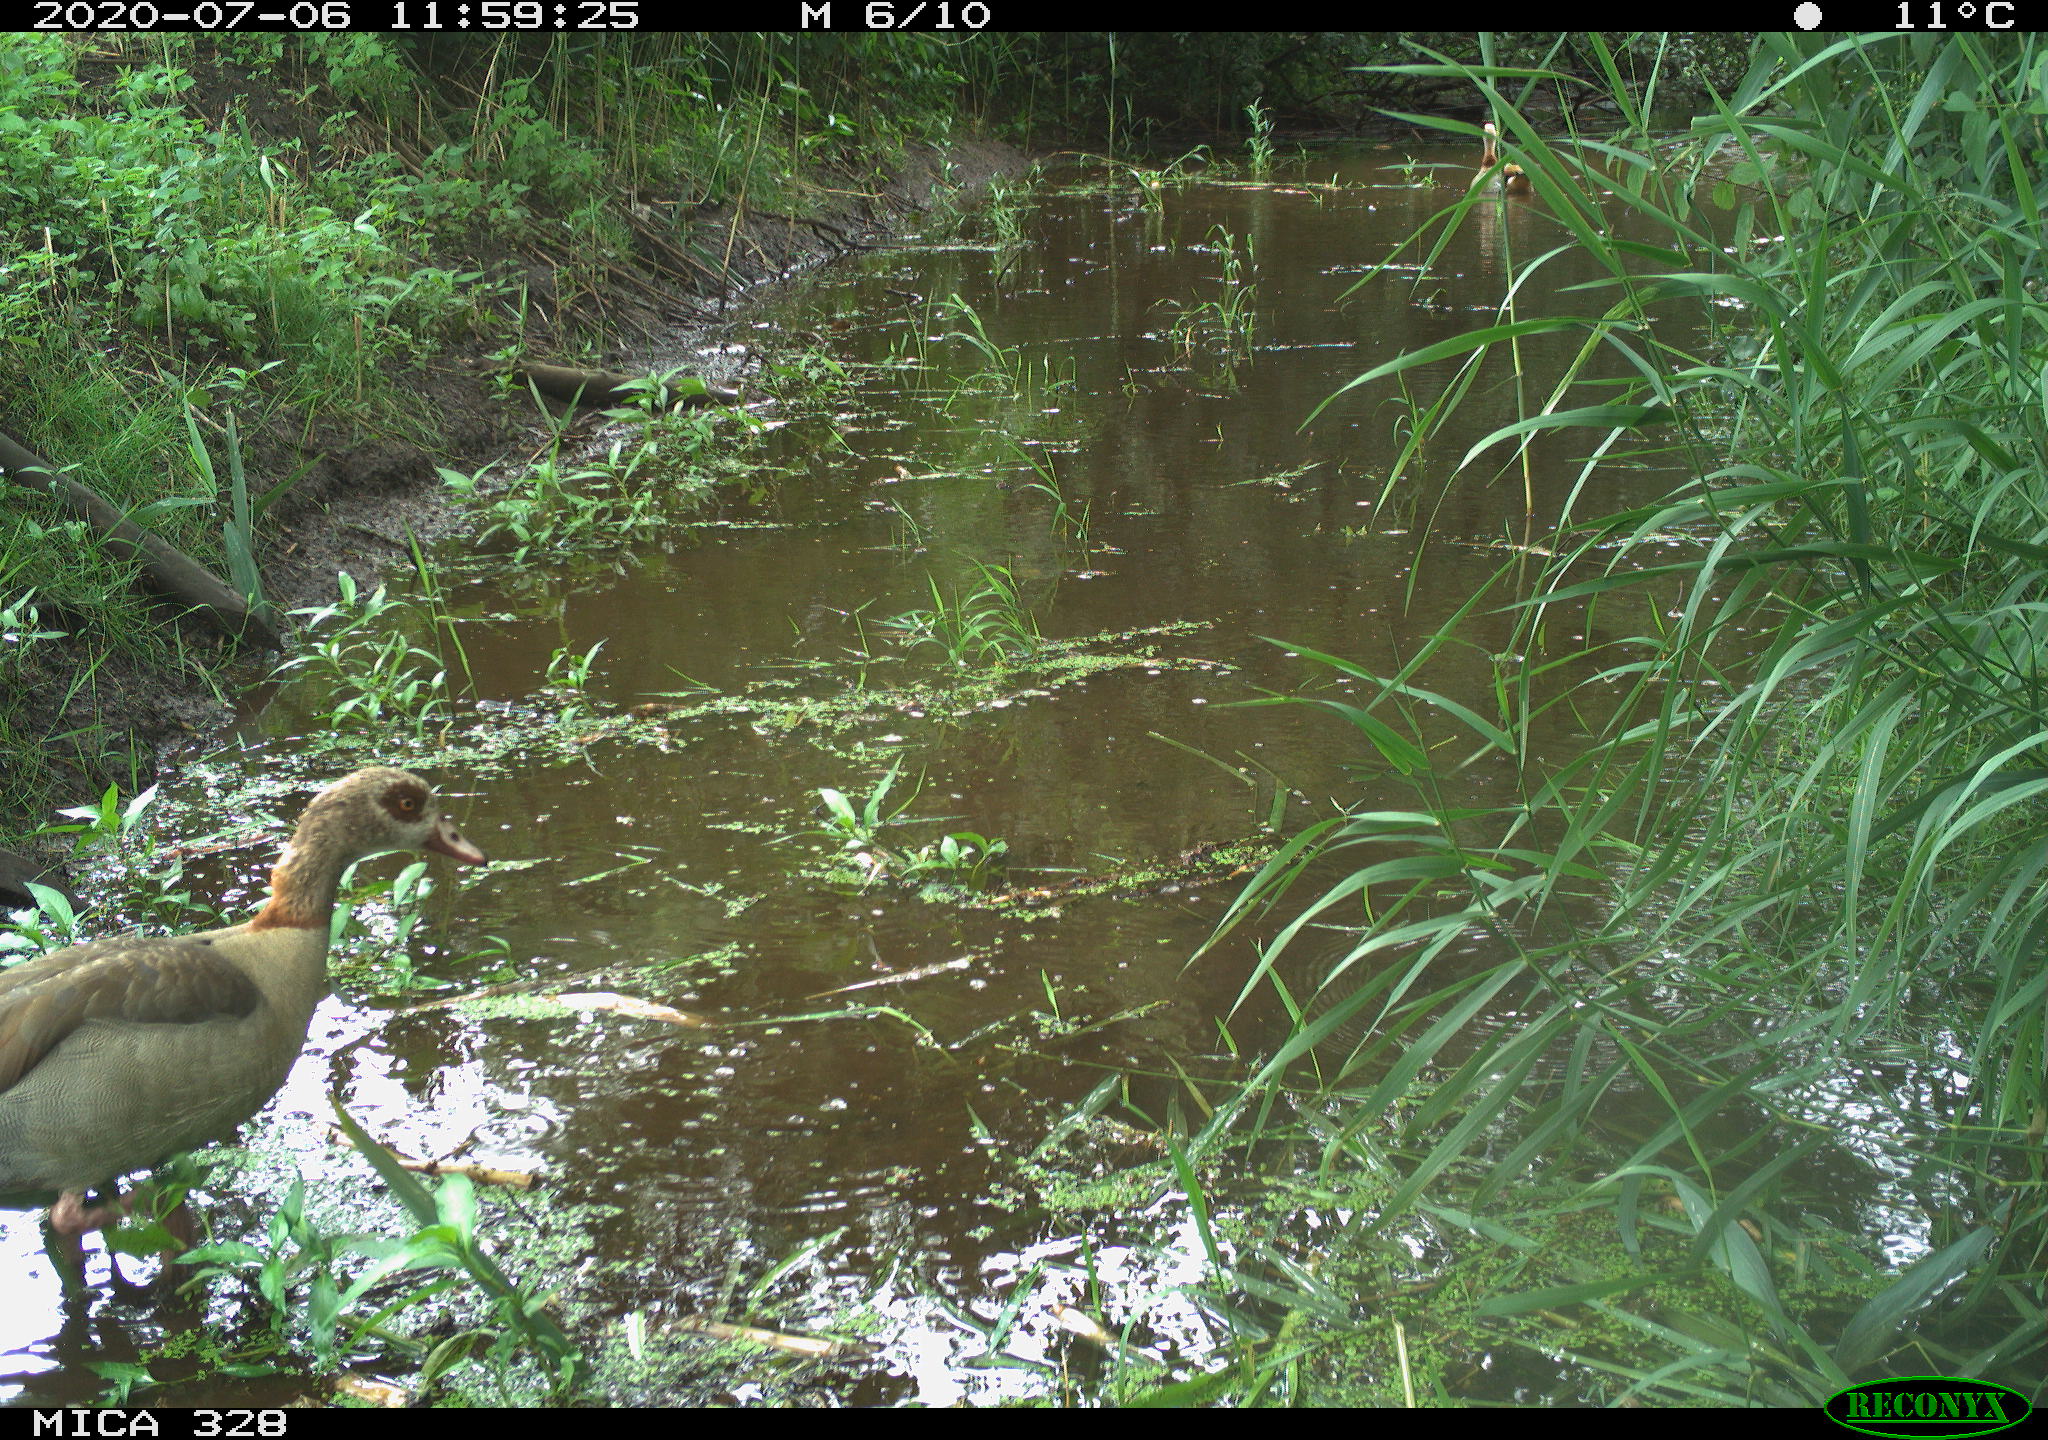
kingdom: Animalia
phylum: Chordata
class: Aves
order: Anseriformes
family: Anatidae
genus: Alopochen
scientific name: Alopochen aegyptiaca
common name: Egyptian goose
